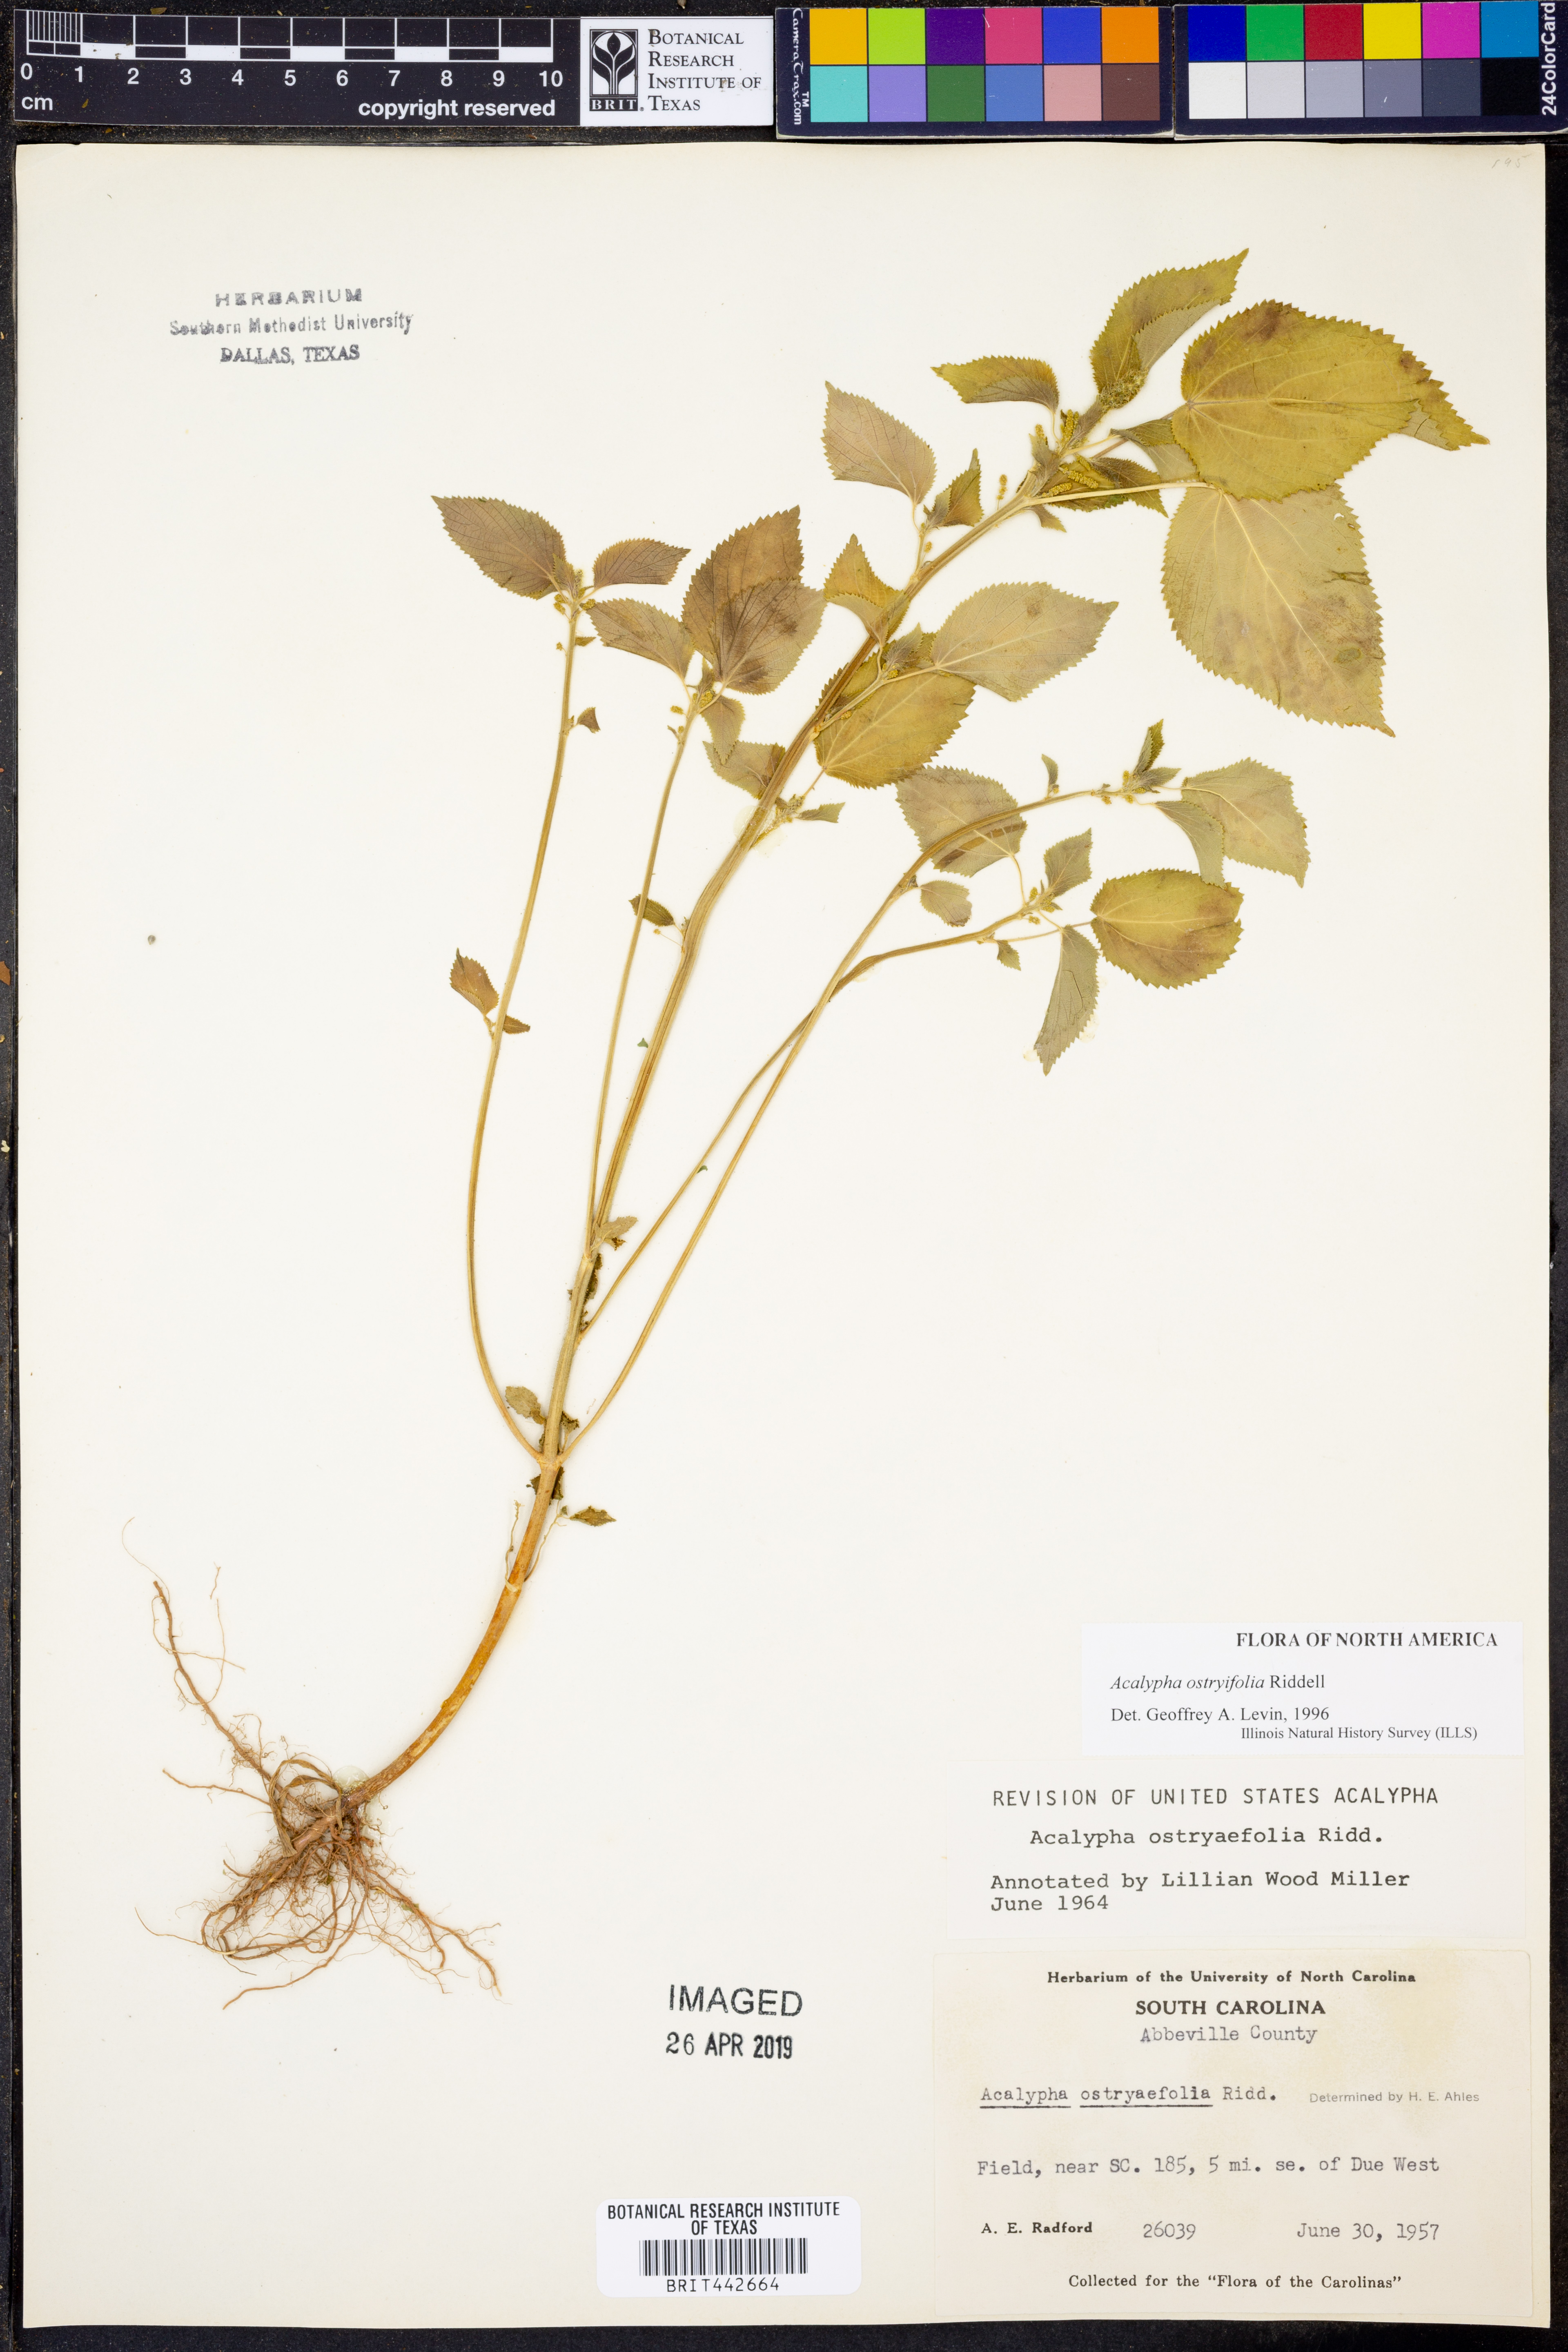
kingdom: Plantae
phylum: Tracheophyta
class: Magnoliopsida
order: Malpighiales
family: Euphorbiaceae
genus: Acalypha
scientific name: Acalypha persimilis
